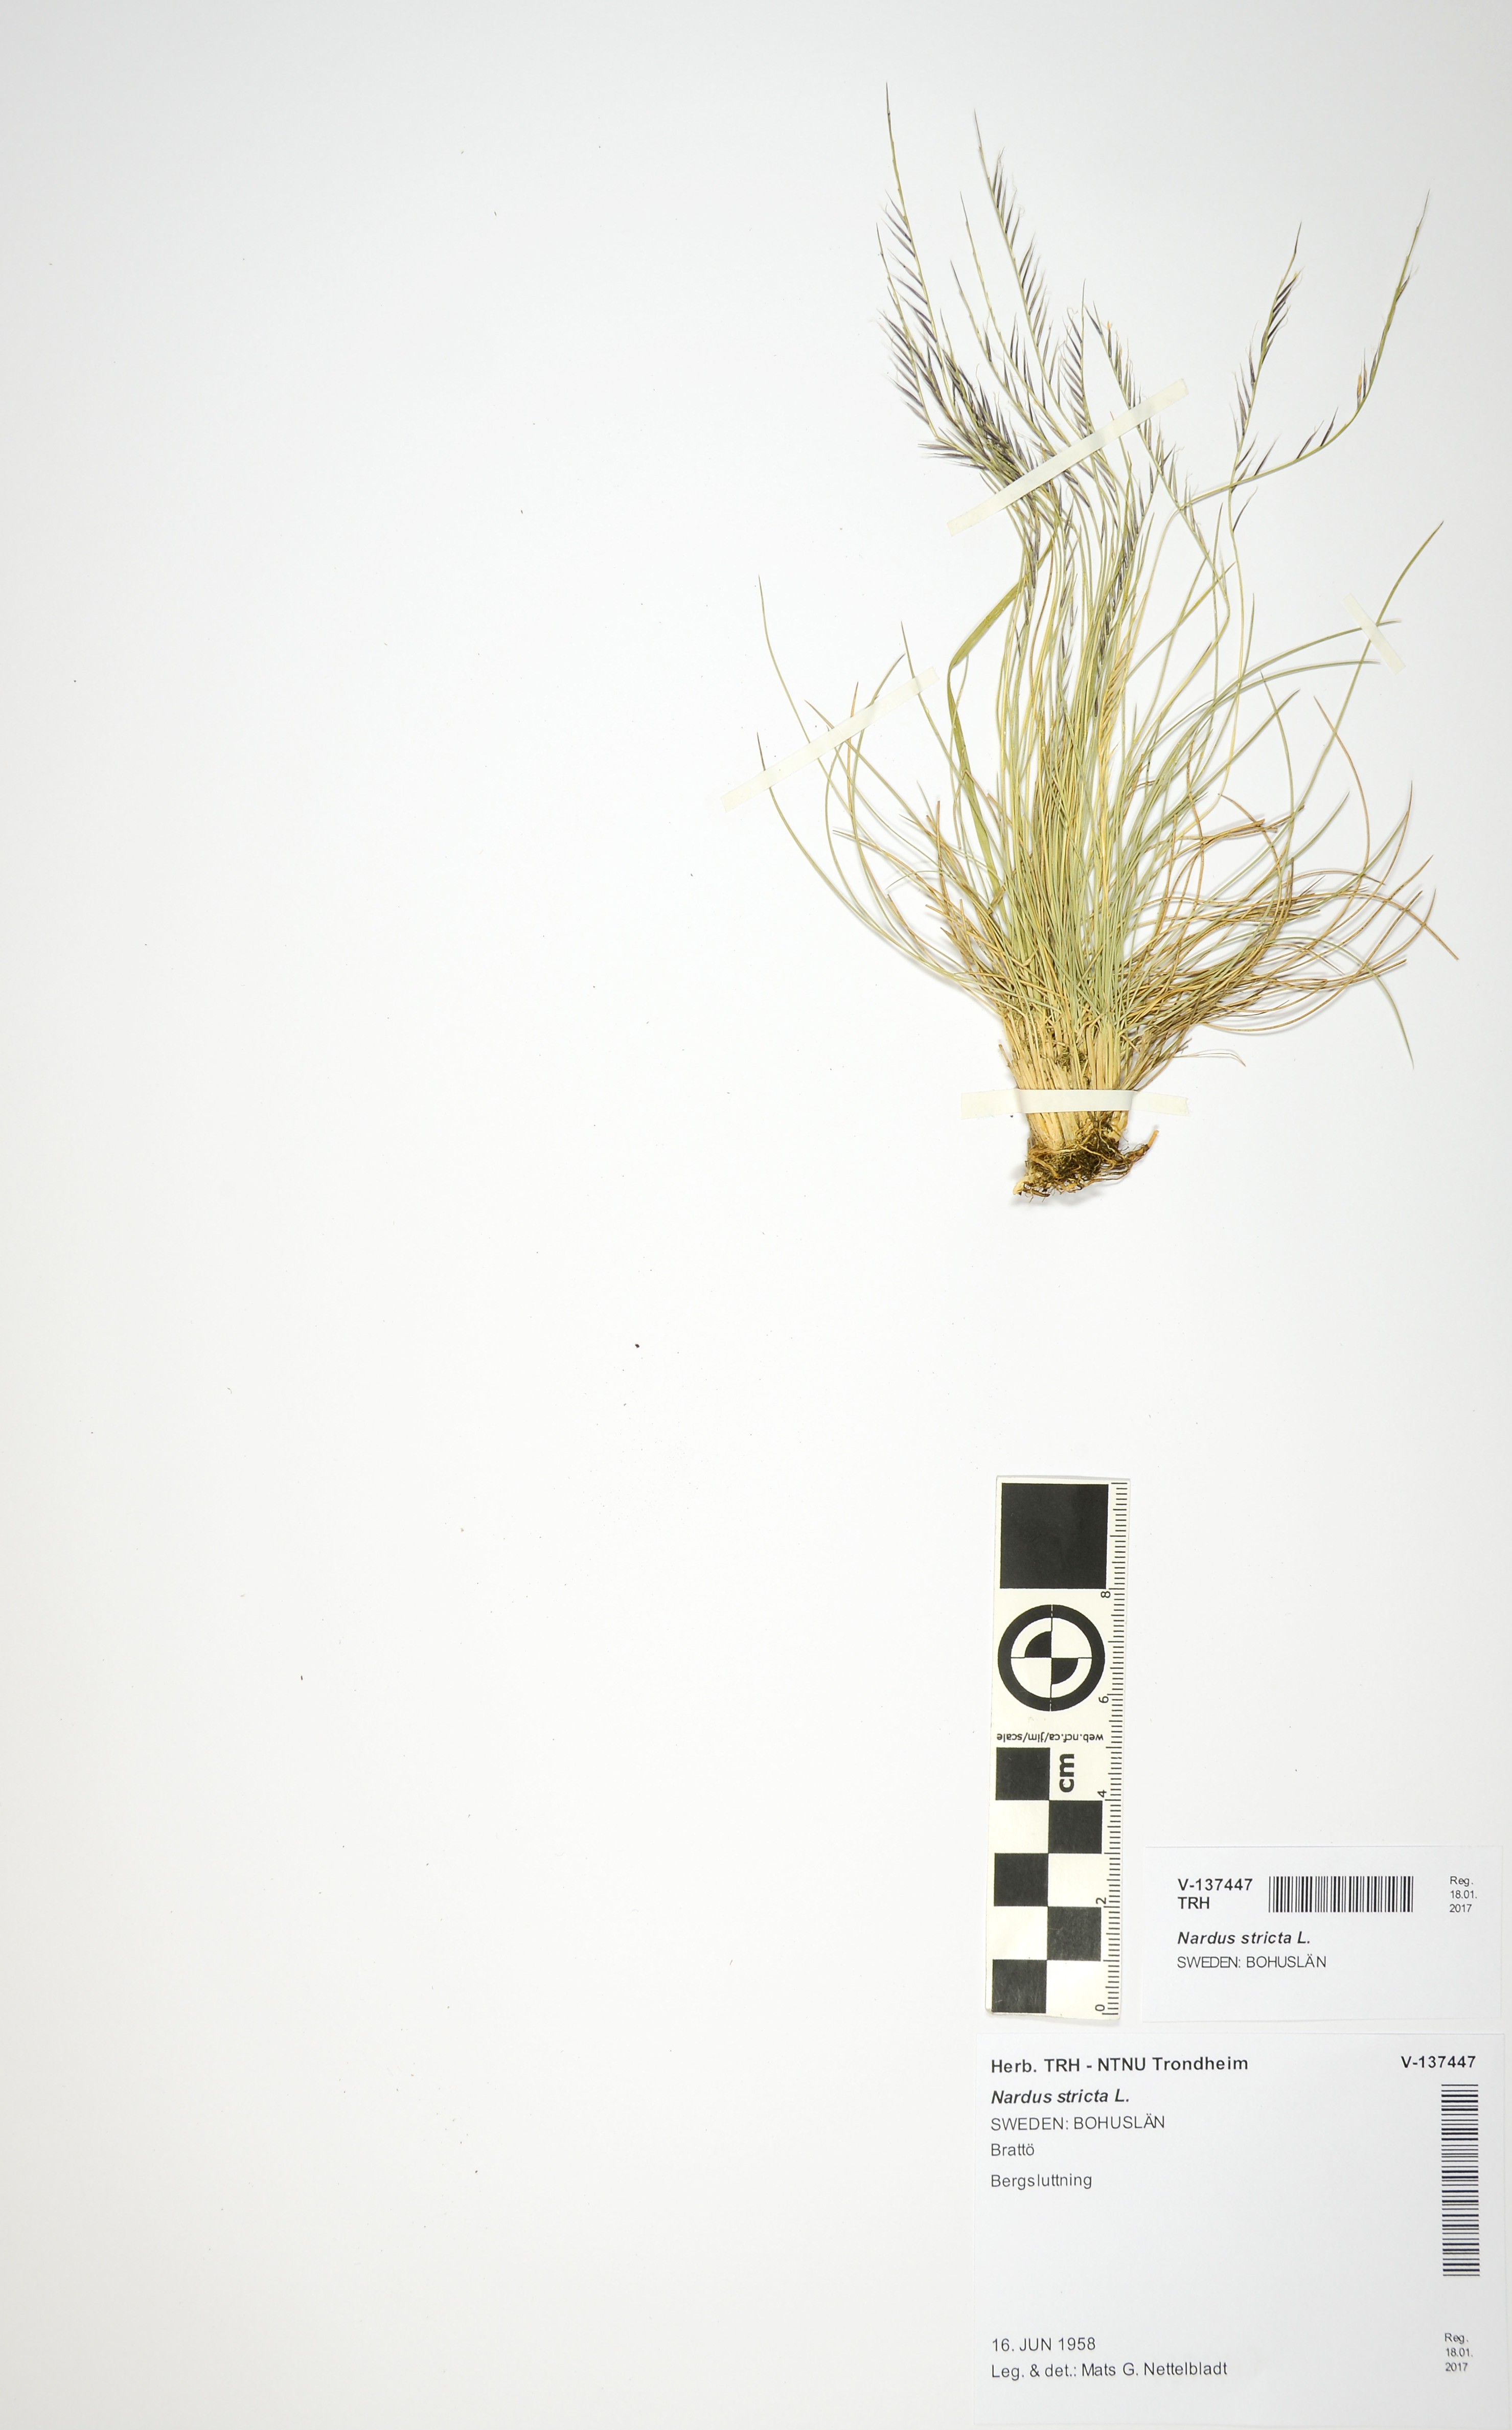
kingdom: Plantae
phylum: Tracheophyta
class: Liliopsida
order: Poales
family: Poaceae
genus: Nardus
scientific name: Nardus stricta
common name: Mat-grass
